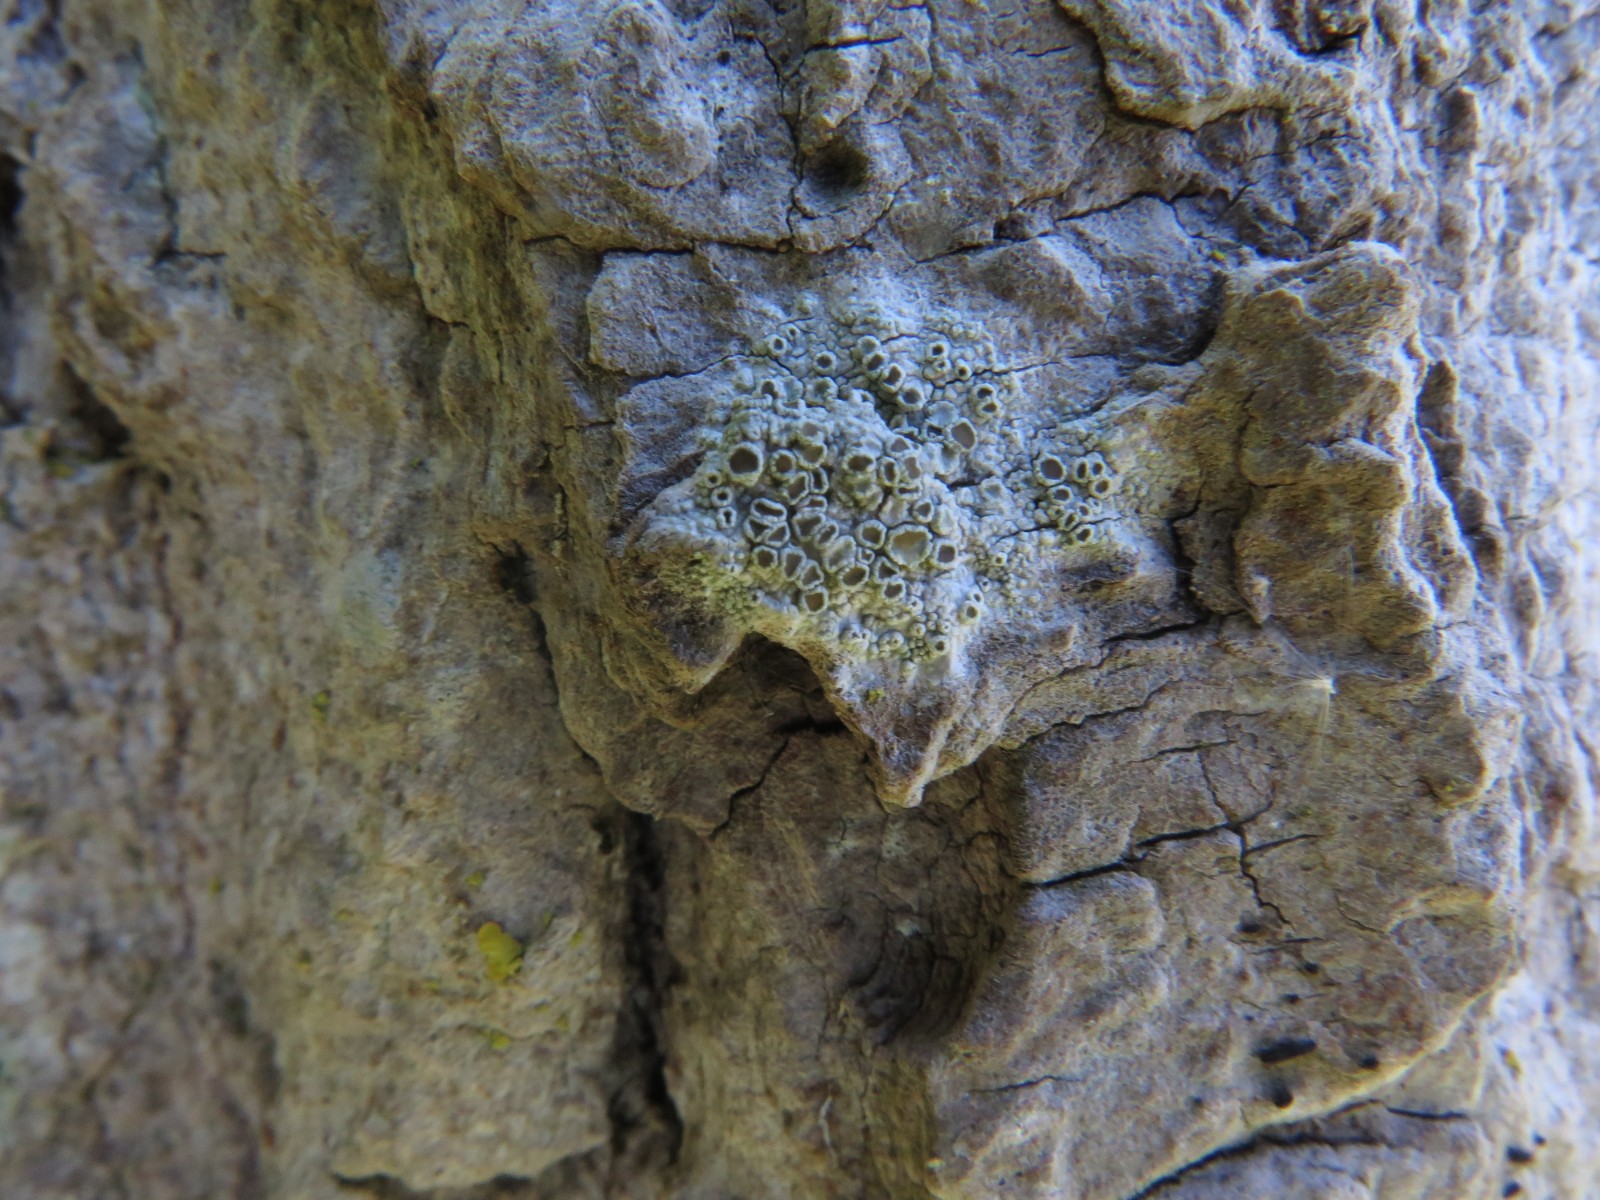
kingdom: Fungi
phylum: Ascomycota
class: Lecanoromycetes
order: Lecanorales
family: Lecanoraceae
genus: Lecanora
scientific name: Lecanora chlarotera
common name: brun kantskivelav
